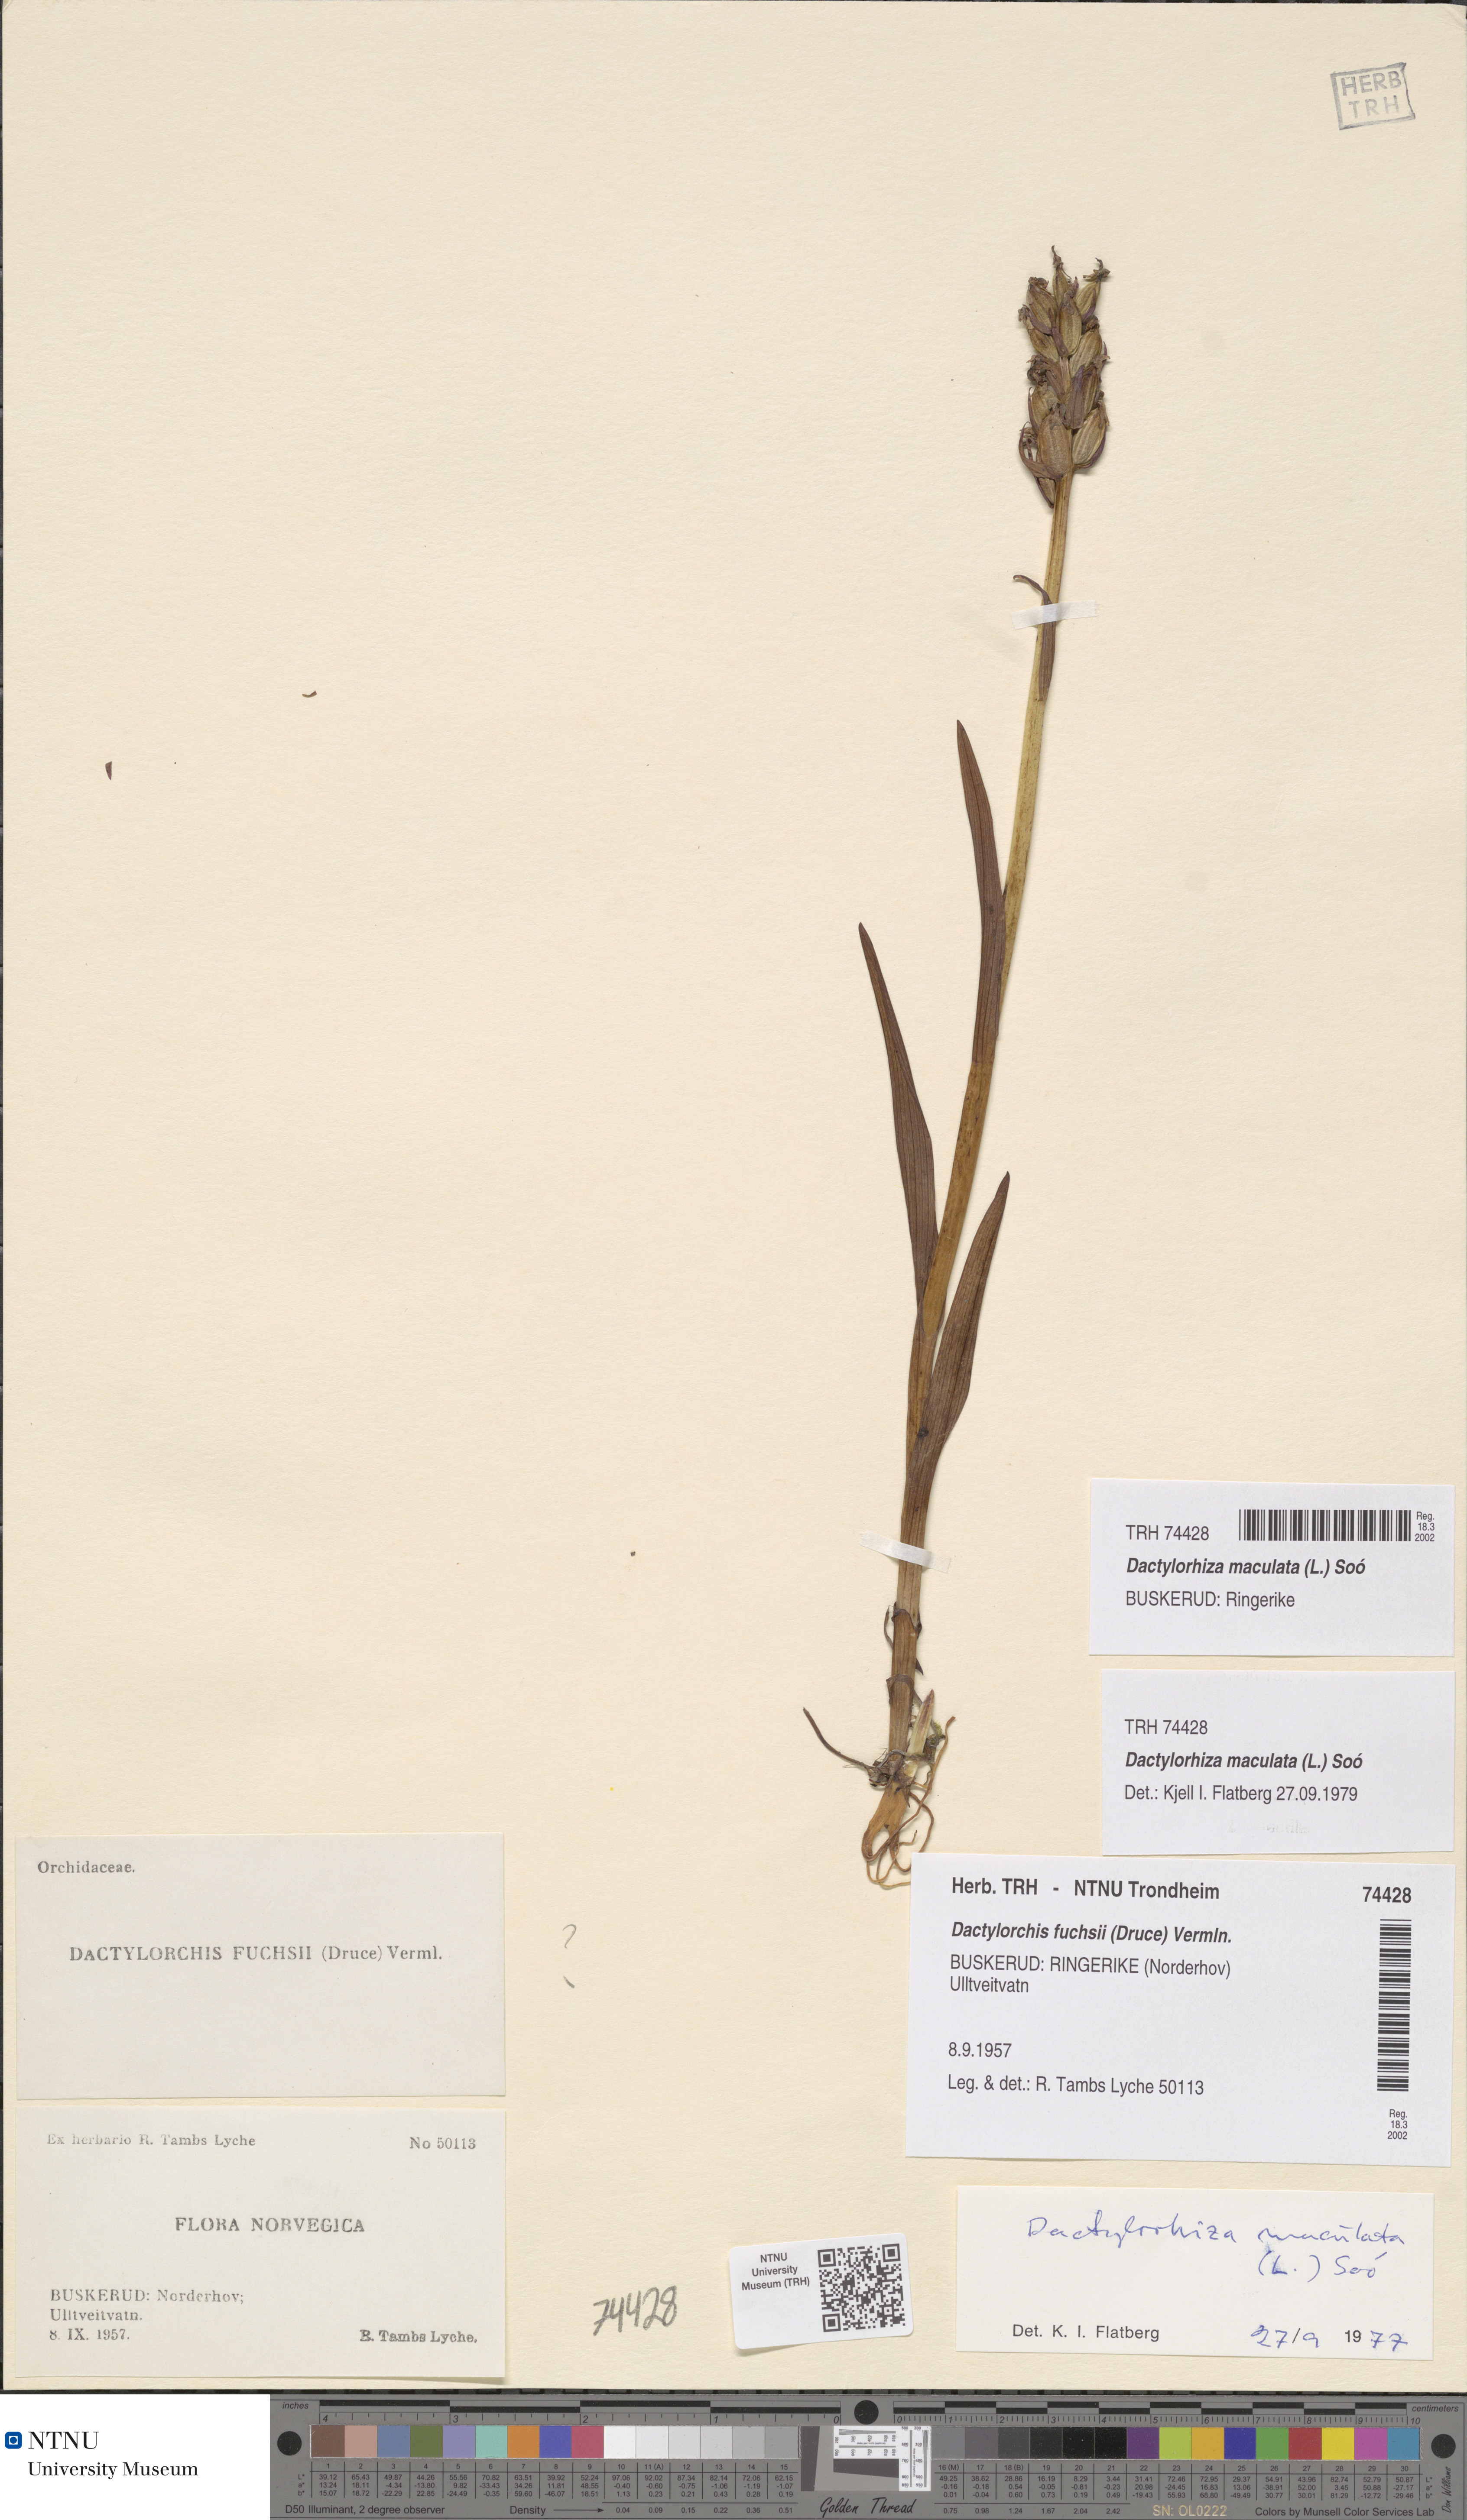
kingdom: Plantae
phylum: Tracheophyta
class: Liliopsida
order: Asparagales
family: Orchidaceae
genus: Dactylorhiza
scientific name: Dactylorhiza maculata
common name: Heath spotted-orchid
